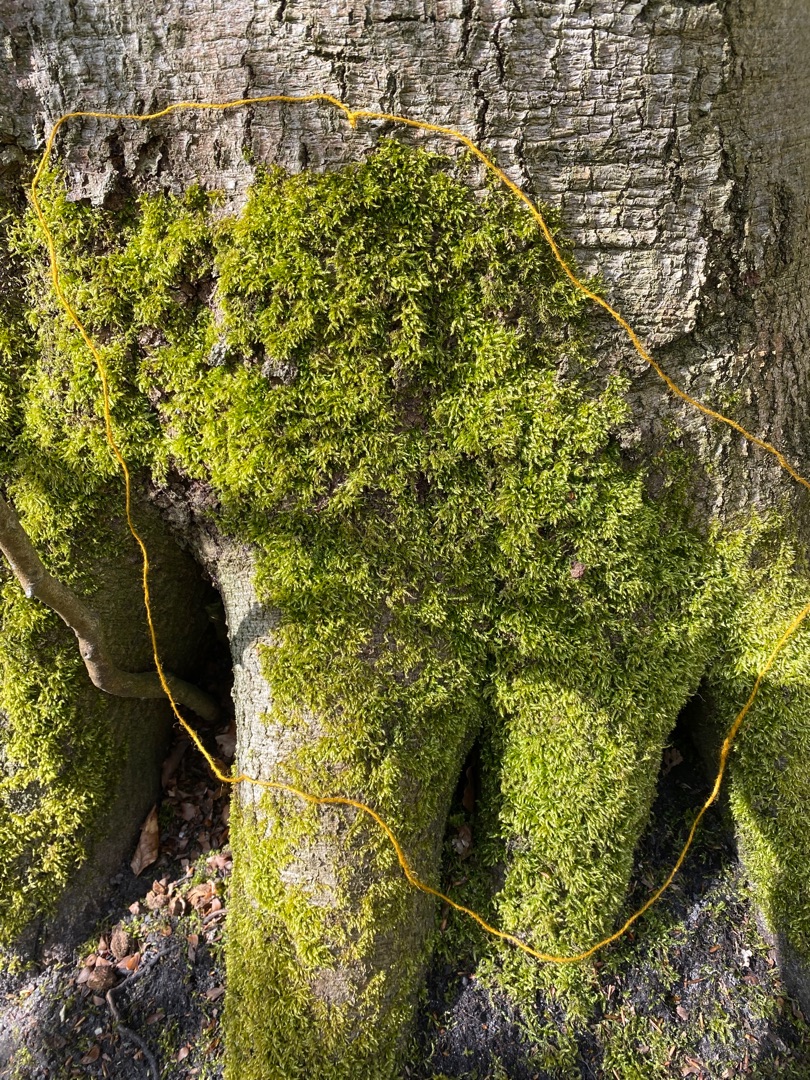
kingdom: Plantae
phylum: Bryophyta
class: Bryopsida
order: Hypnales
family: Brachytheciaceae
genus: Brachythecium
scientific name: Brachythecium rutabulum
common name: Almindelig kortkapsel
